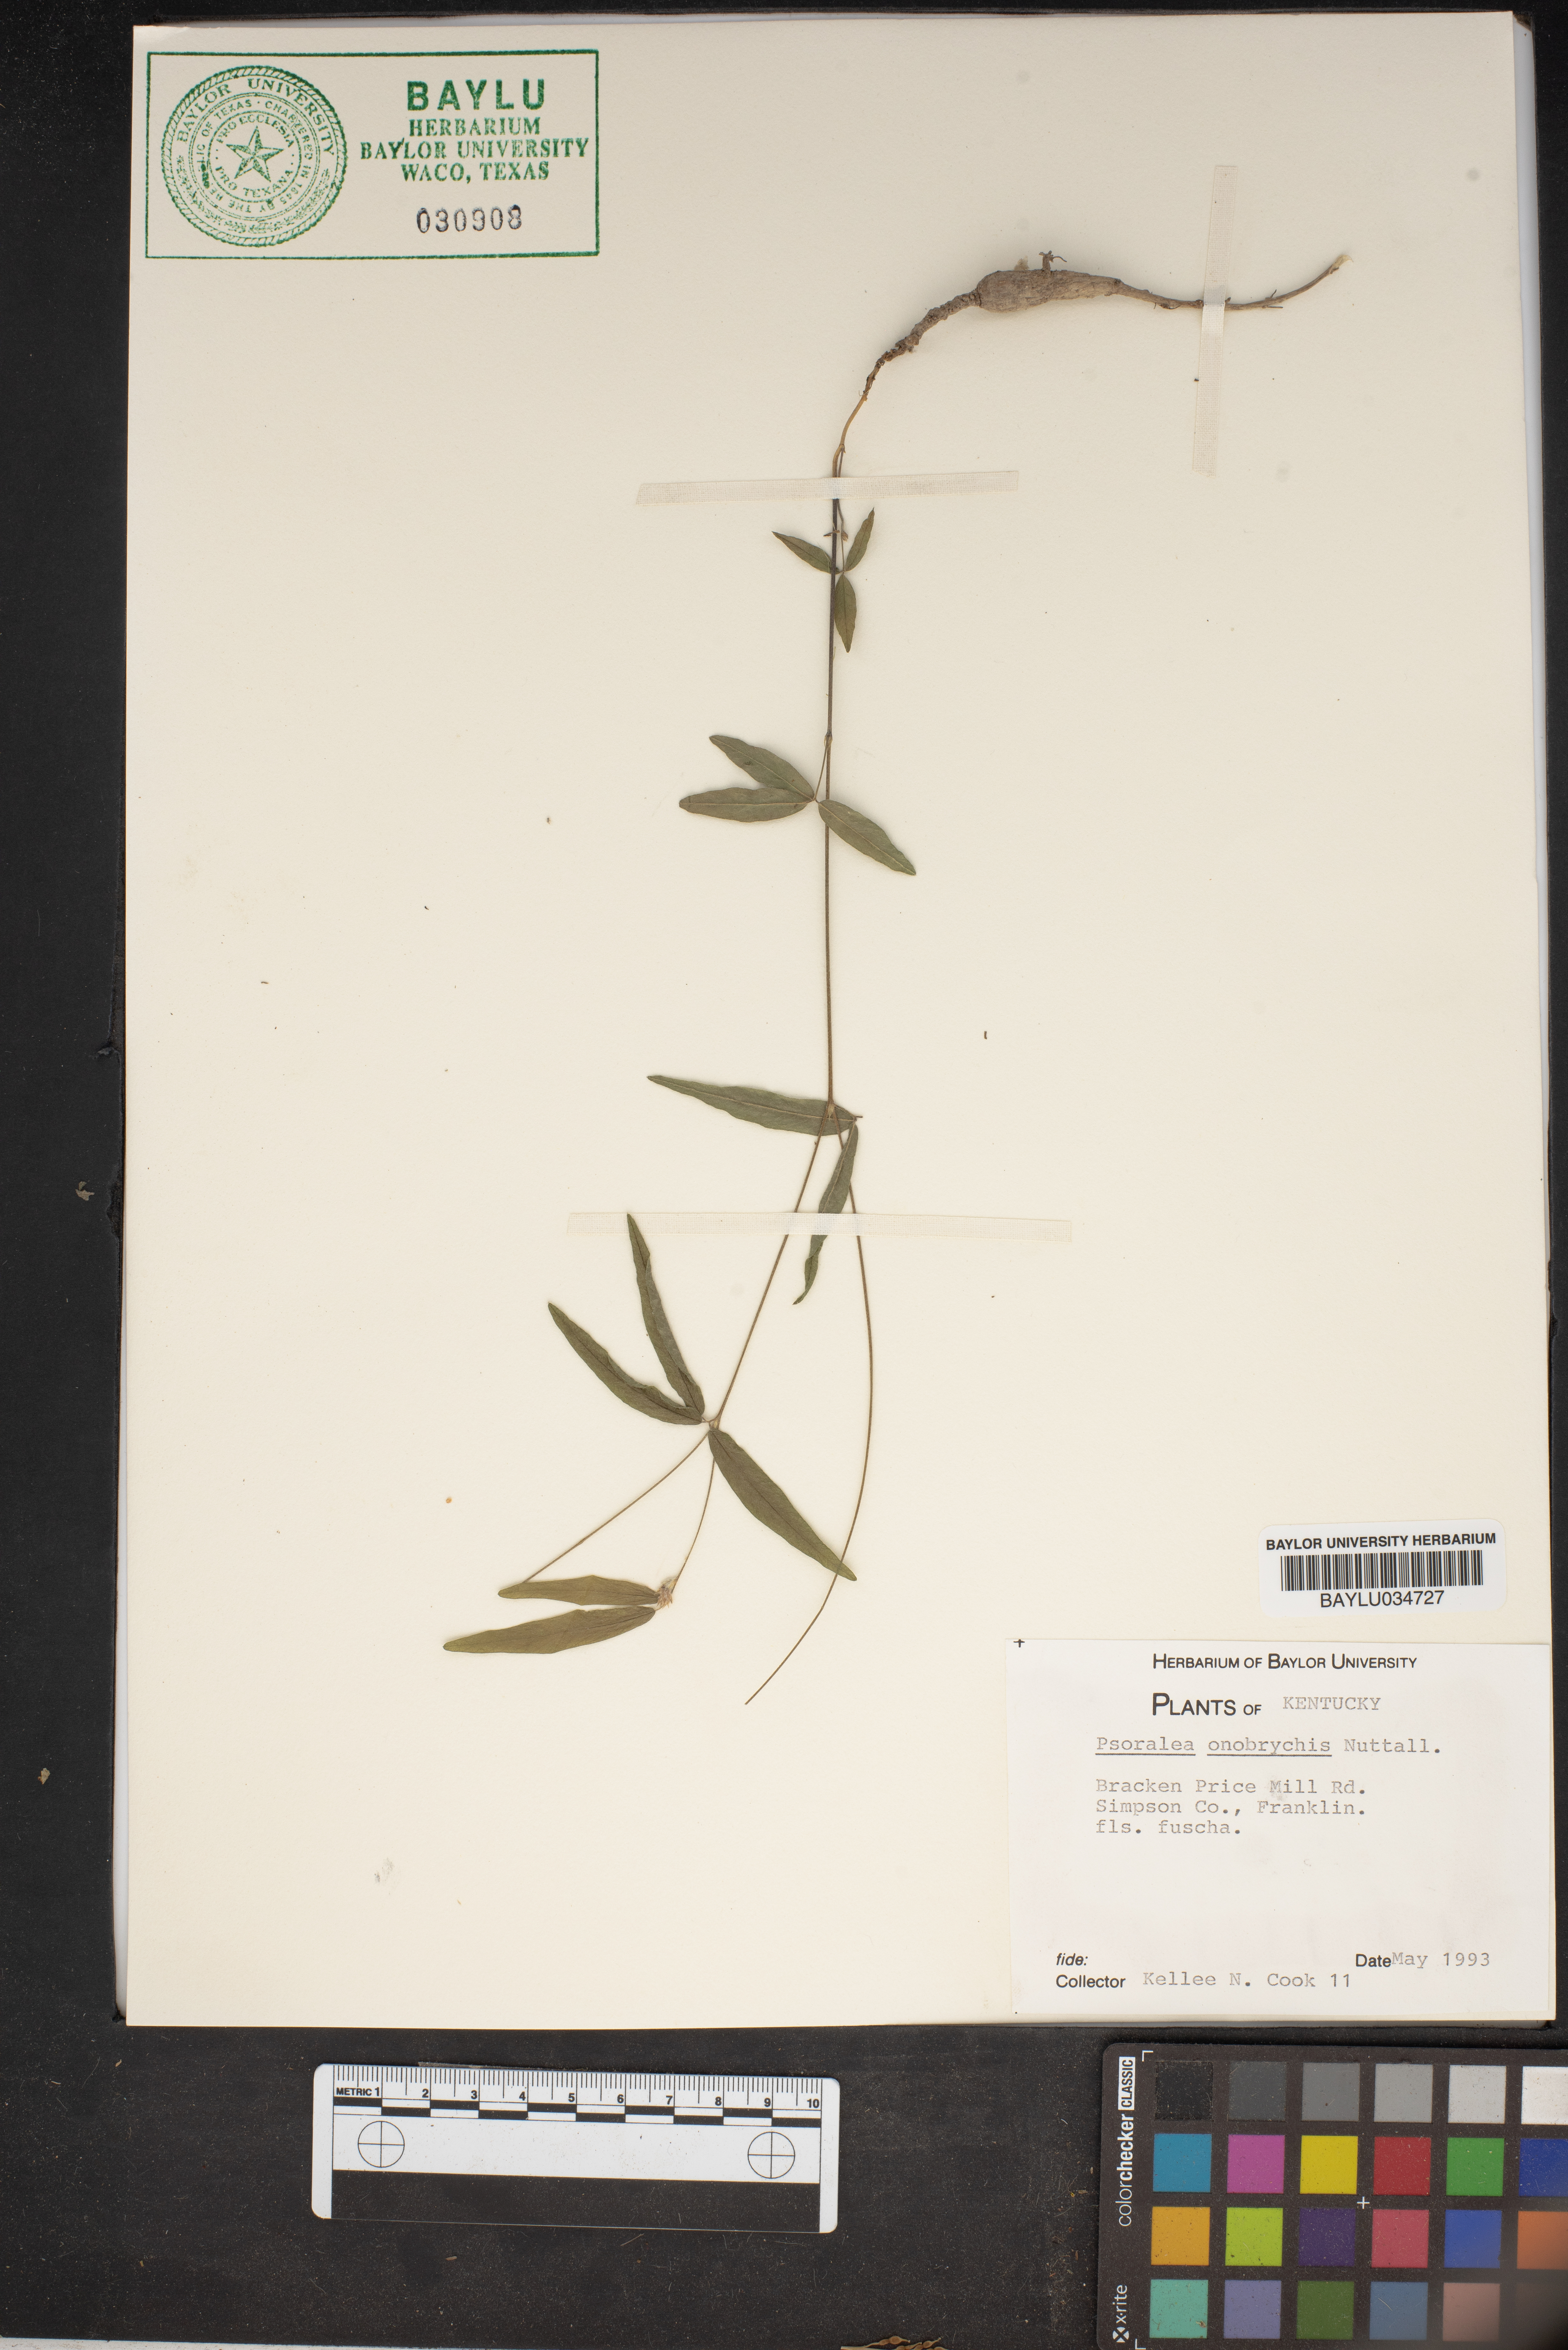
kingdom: Plantae
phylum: Tracheophyta
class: Magnoliopsida
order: Fabales
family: Fabaceae
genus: Orbexilum
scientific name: Orbexilum onobrychis
